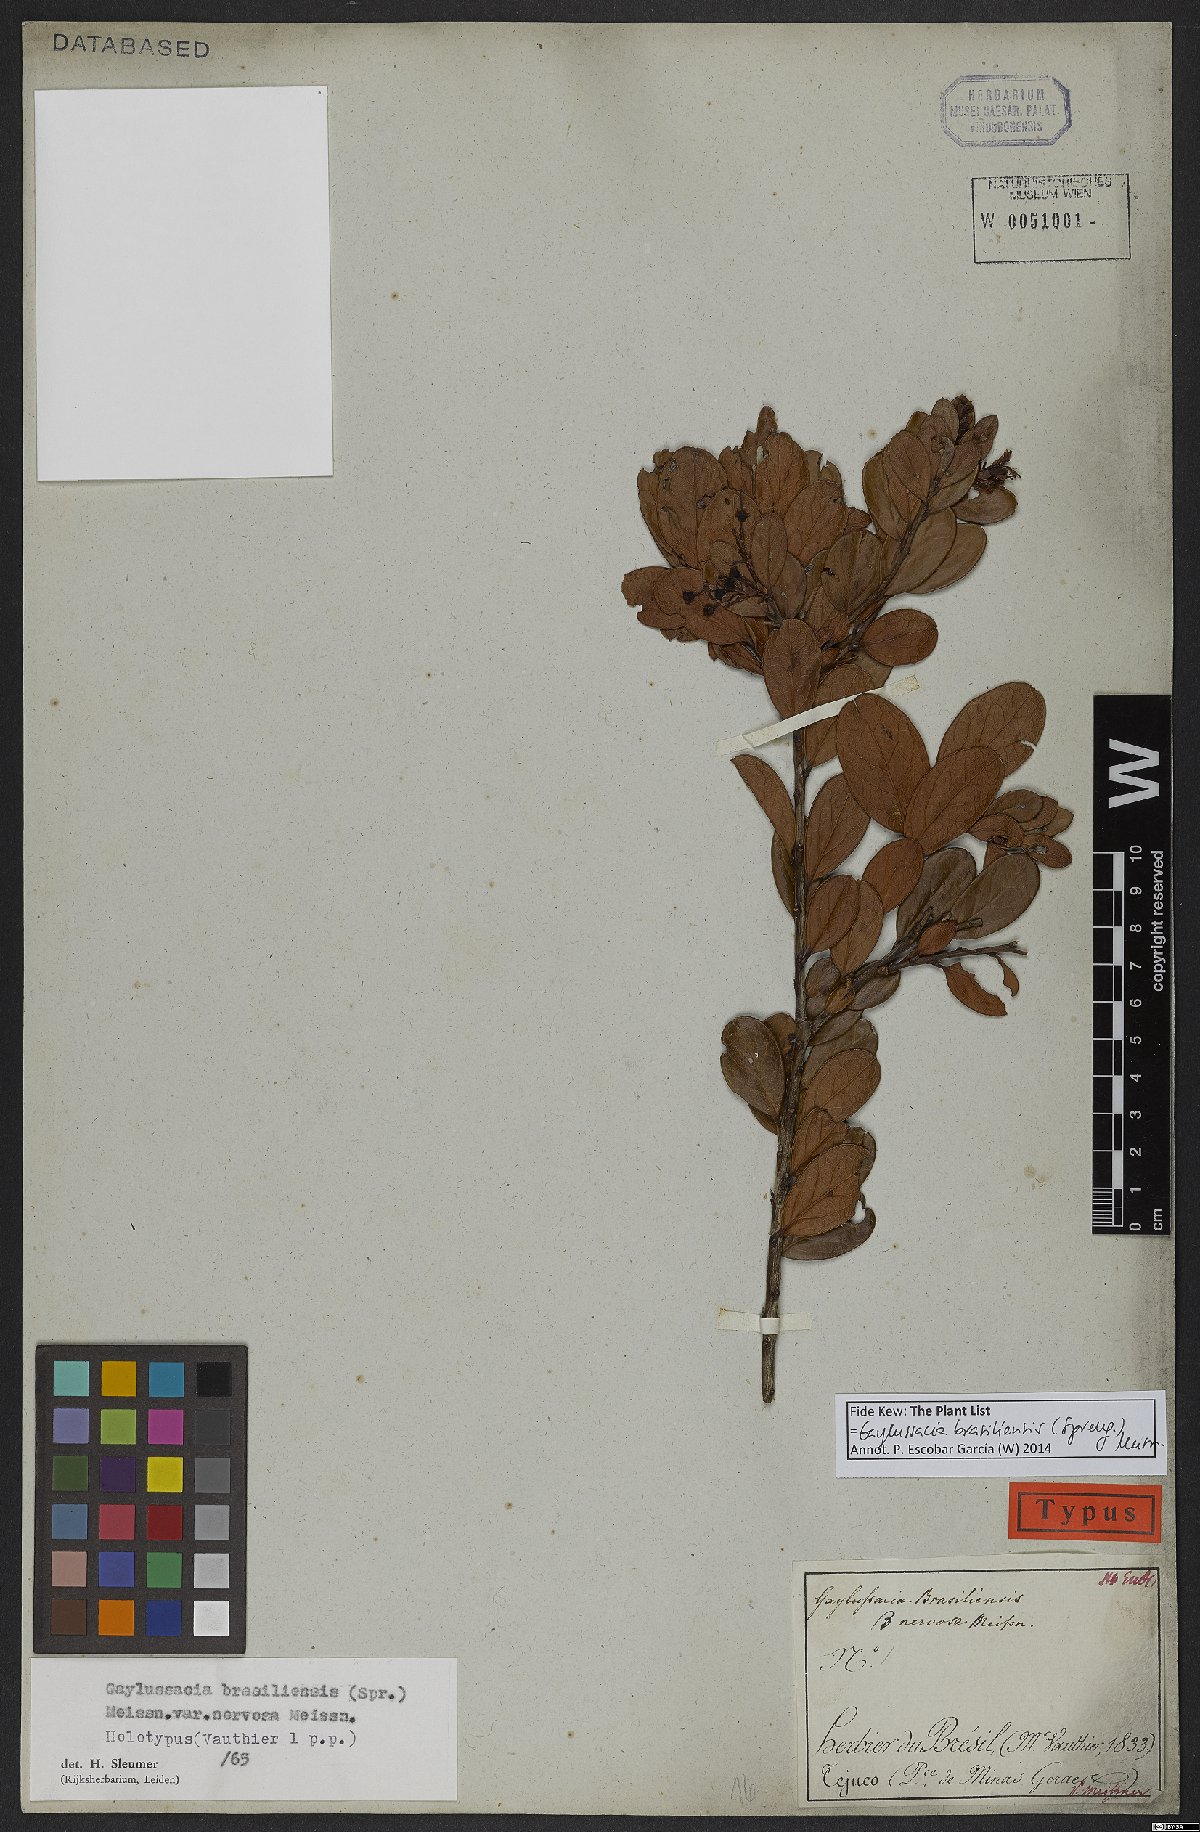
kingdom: Plantae
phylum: Tracheophyta
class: Magnoliopsida
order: Ericales
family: Ericaceae
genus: Gaylussacia
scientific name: Gaylussacia brasiliensis
